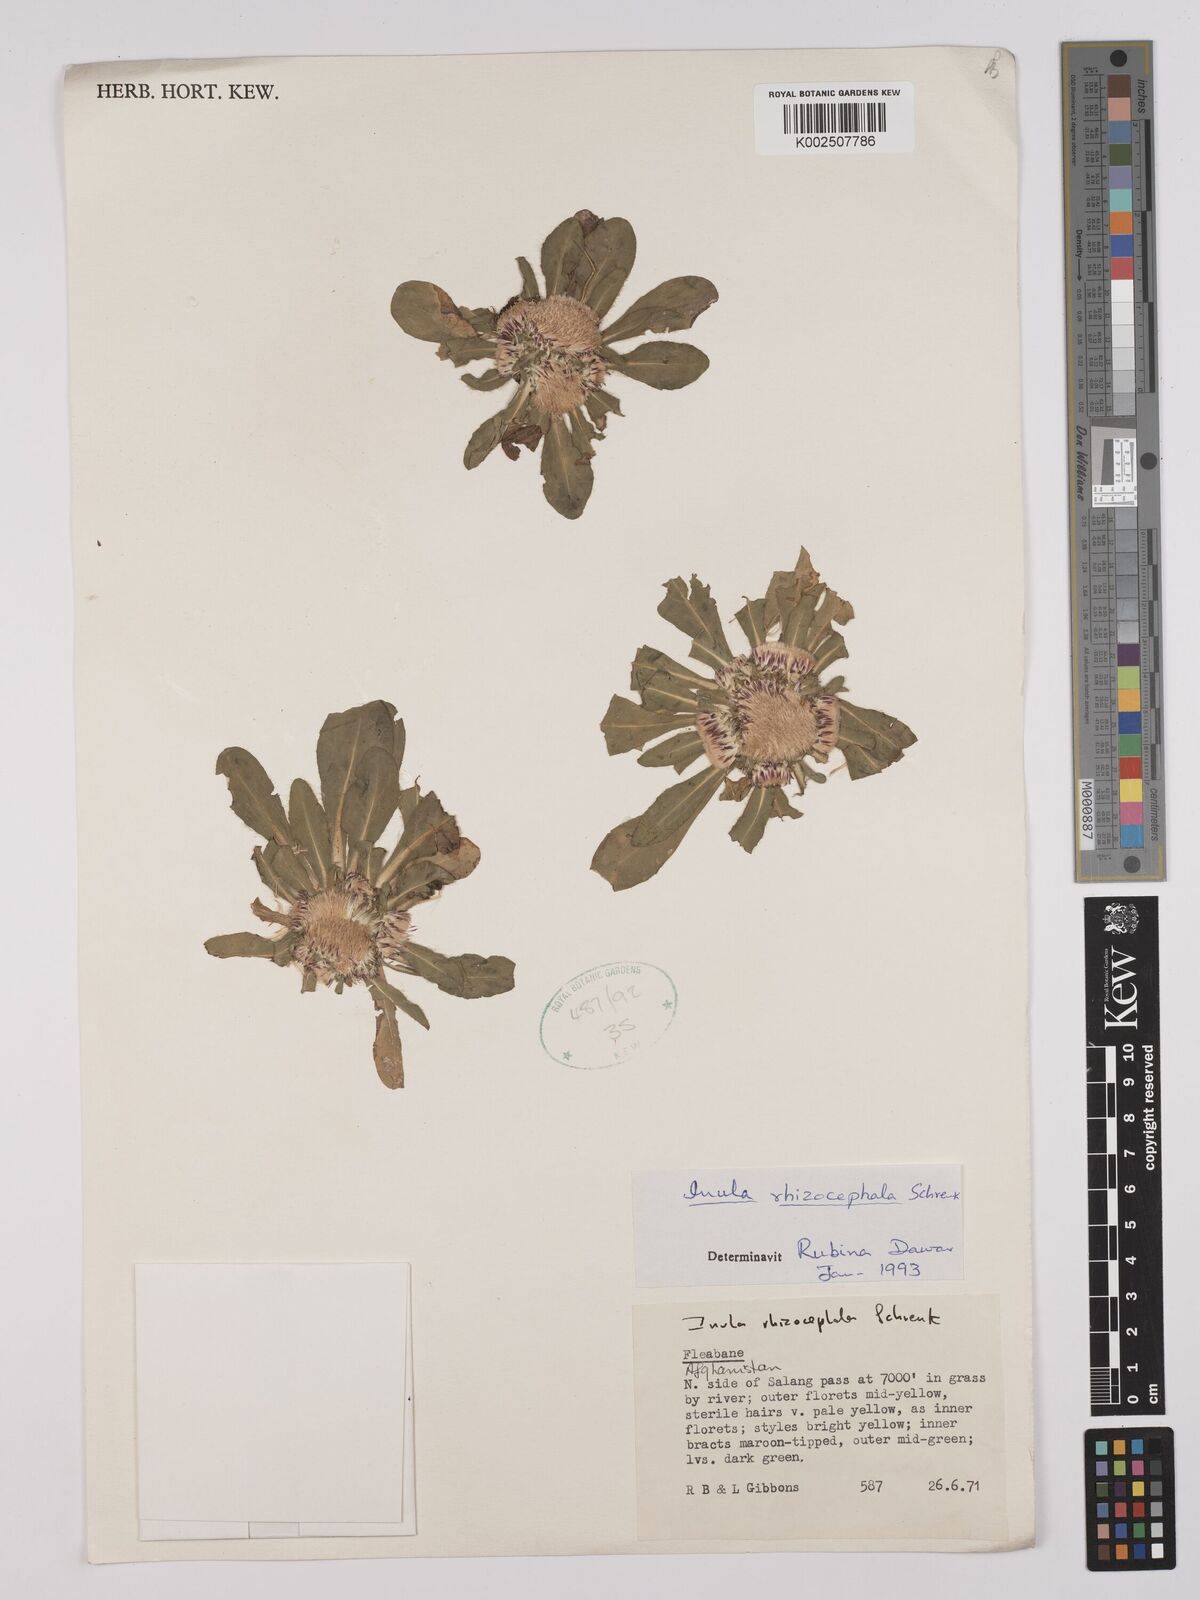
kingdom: Plantae
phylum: Tracheophyta
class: Magnoliopsida
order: Asterales
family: Asteraceae
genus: Inula
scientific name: Inula rhizocephala
